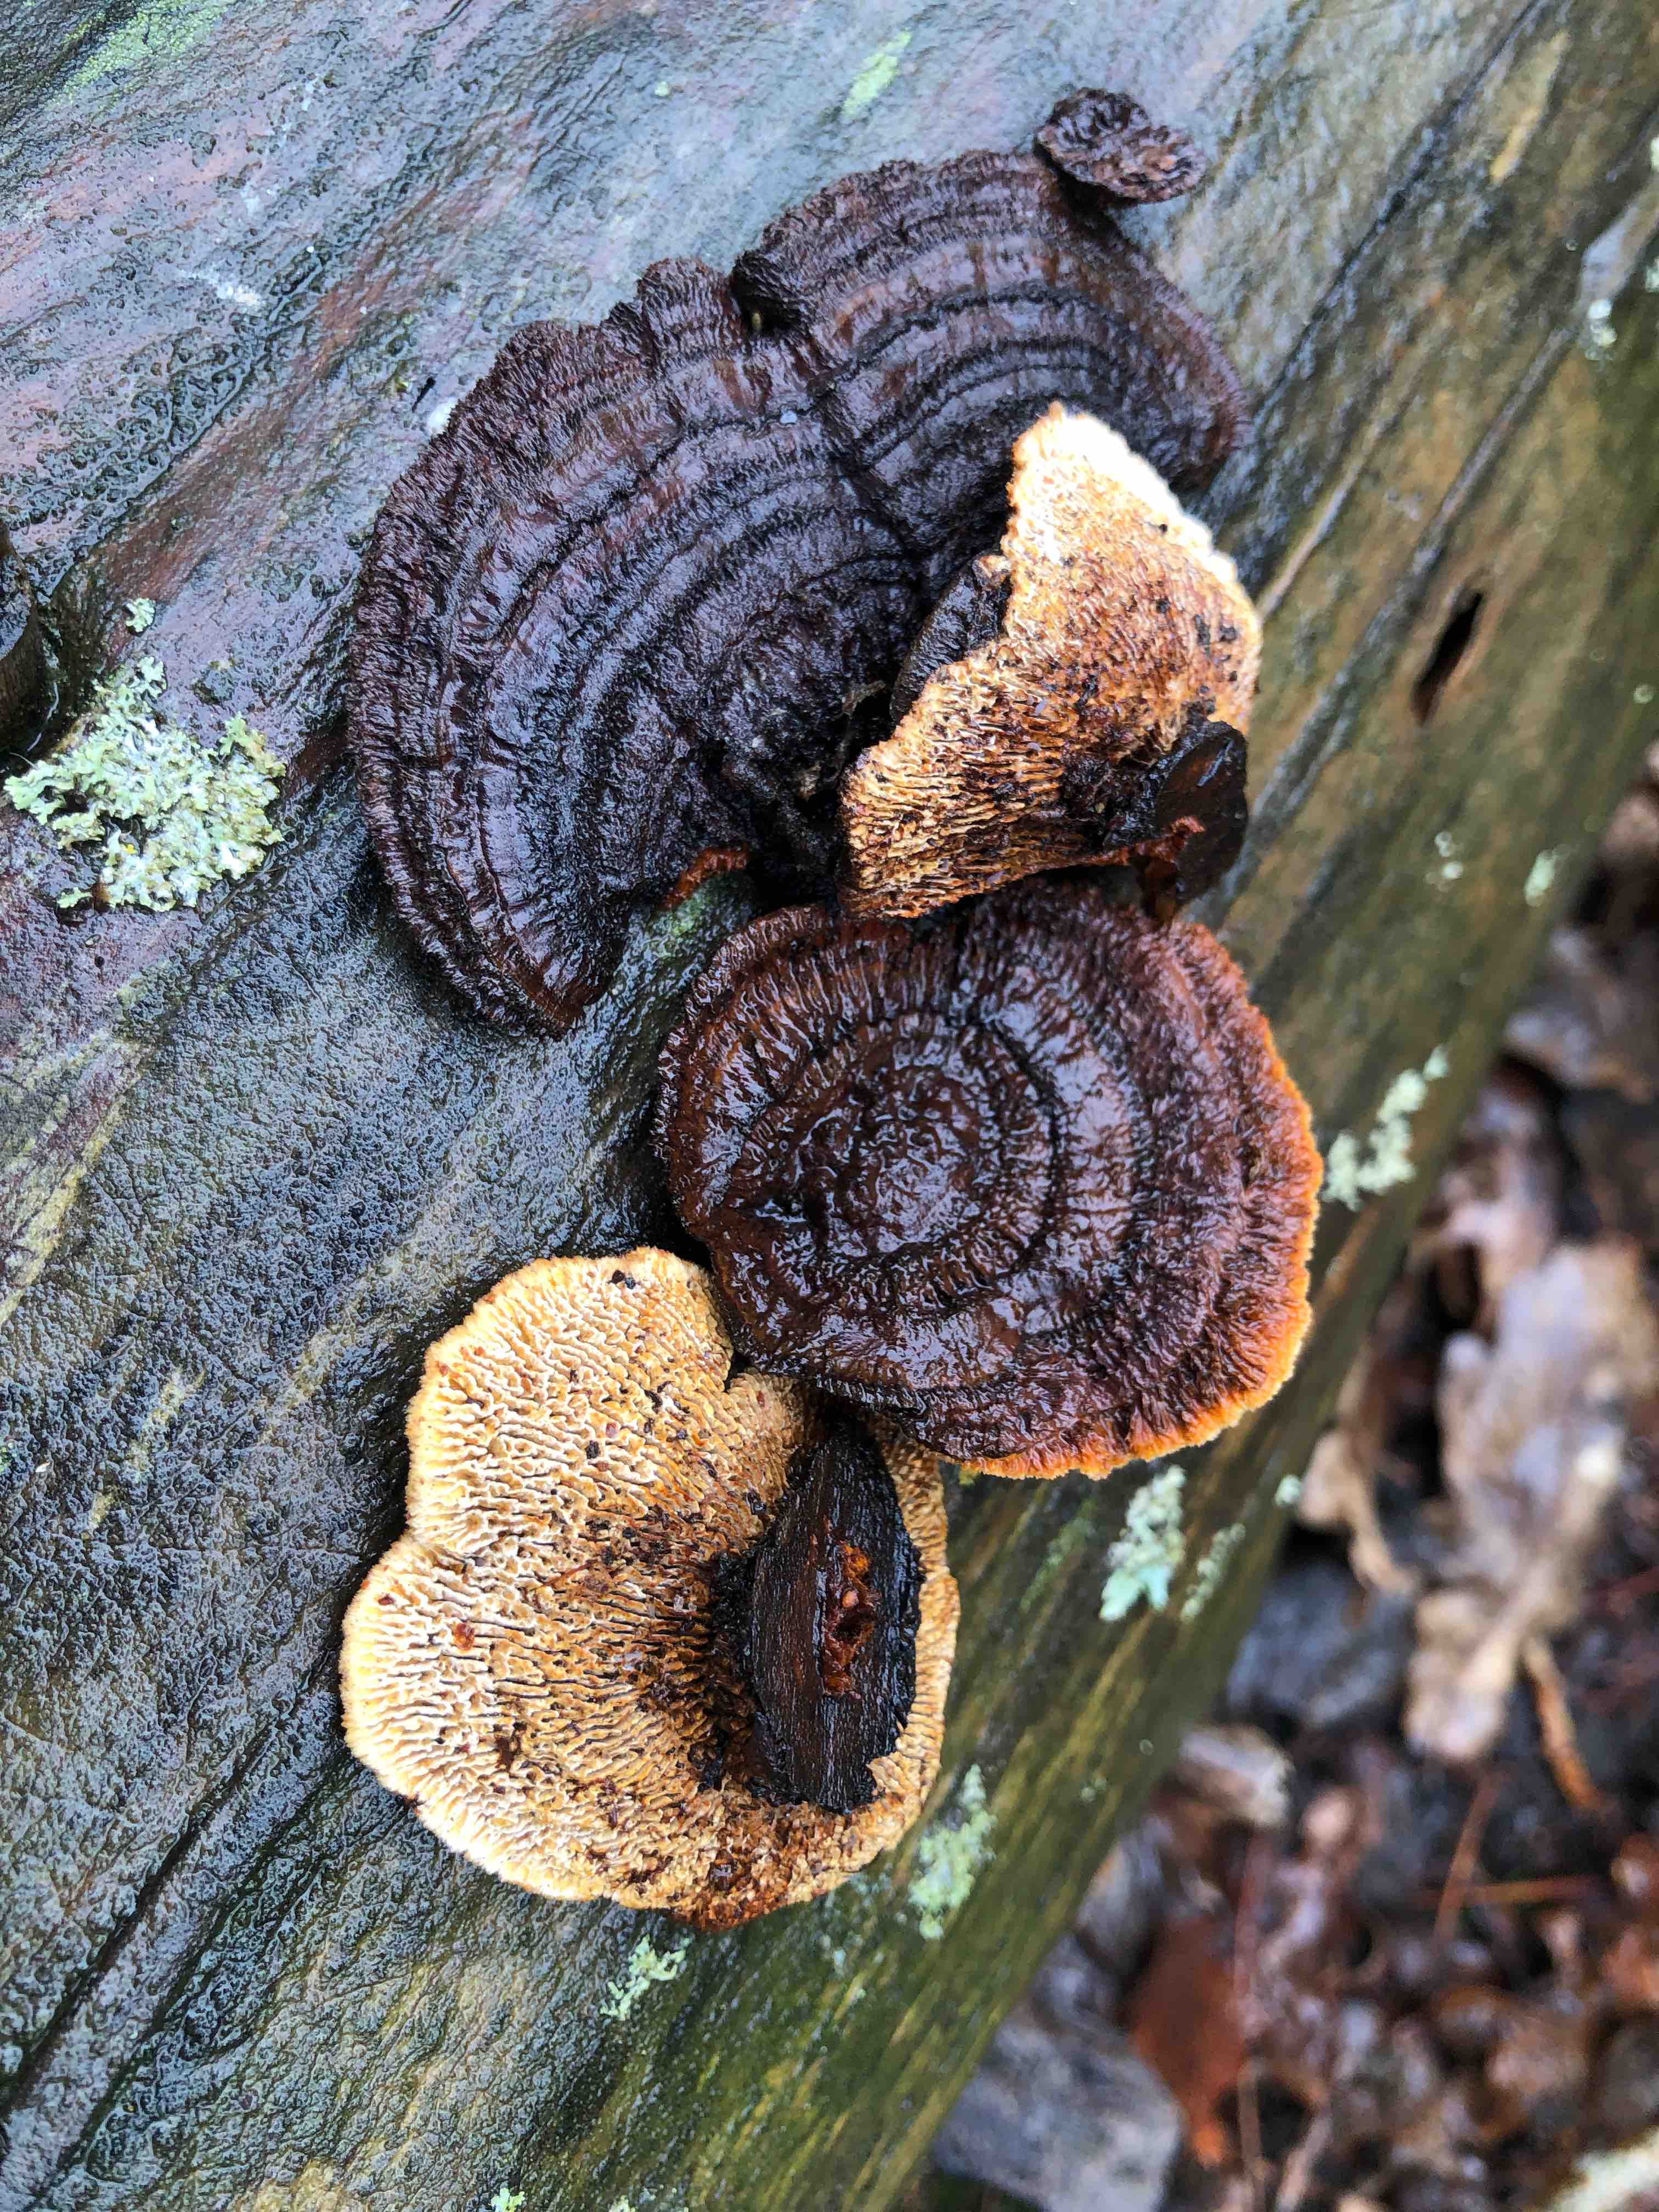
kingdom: Fungi
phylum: Basidiomycota
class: Agaricomycetes
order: Gloeophyllales
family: Gloeophyllaceae
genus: Gloeophyllum
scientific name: Gloeophyllum sepiarium
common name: fyrre-korkhat
